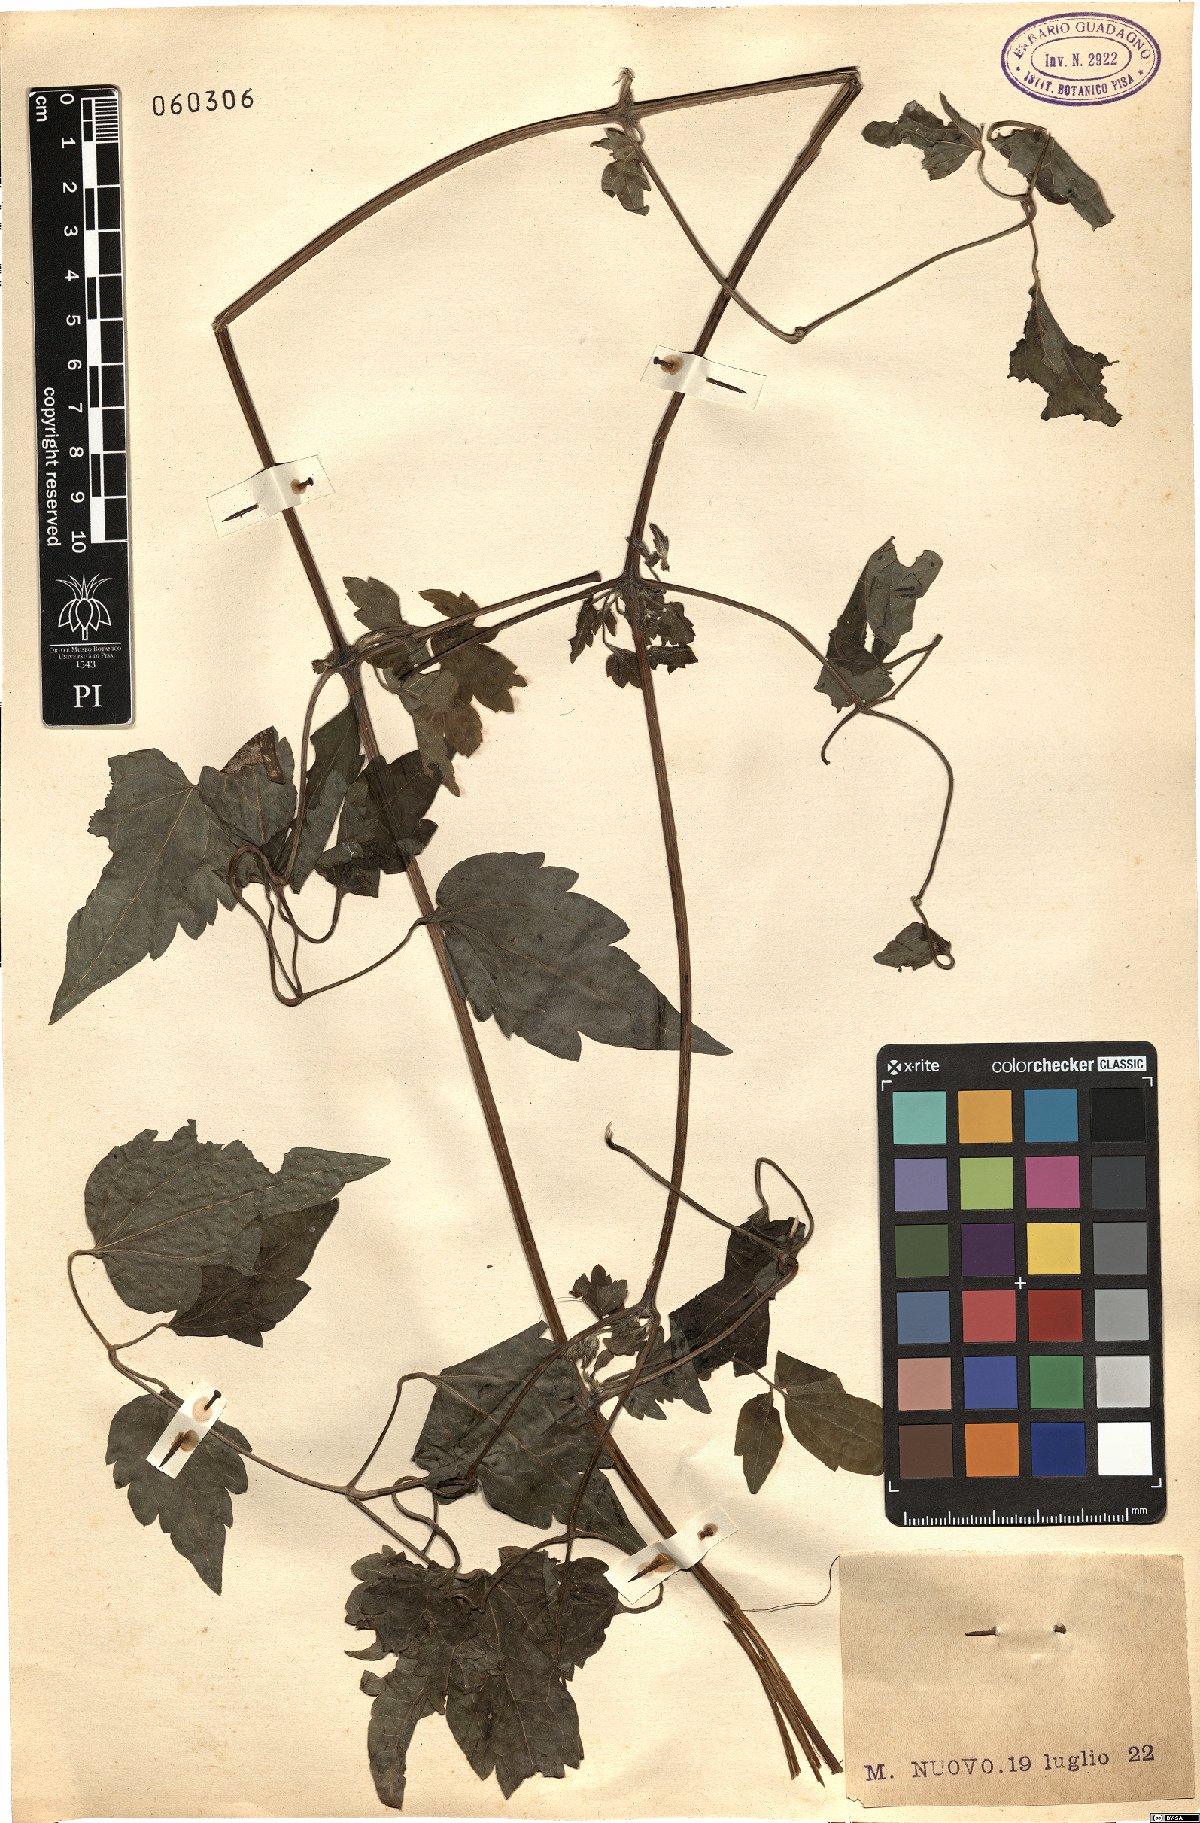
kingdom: Plantae
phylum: Tracheophyta
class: Magnoliopsida
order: Ranunculales
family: Ranunculaceae
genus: Clematis
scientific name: Clematis vitalba
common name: Evergreen clematis
